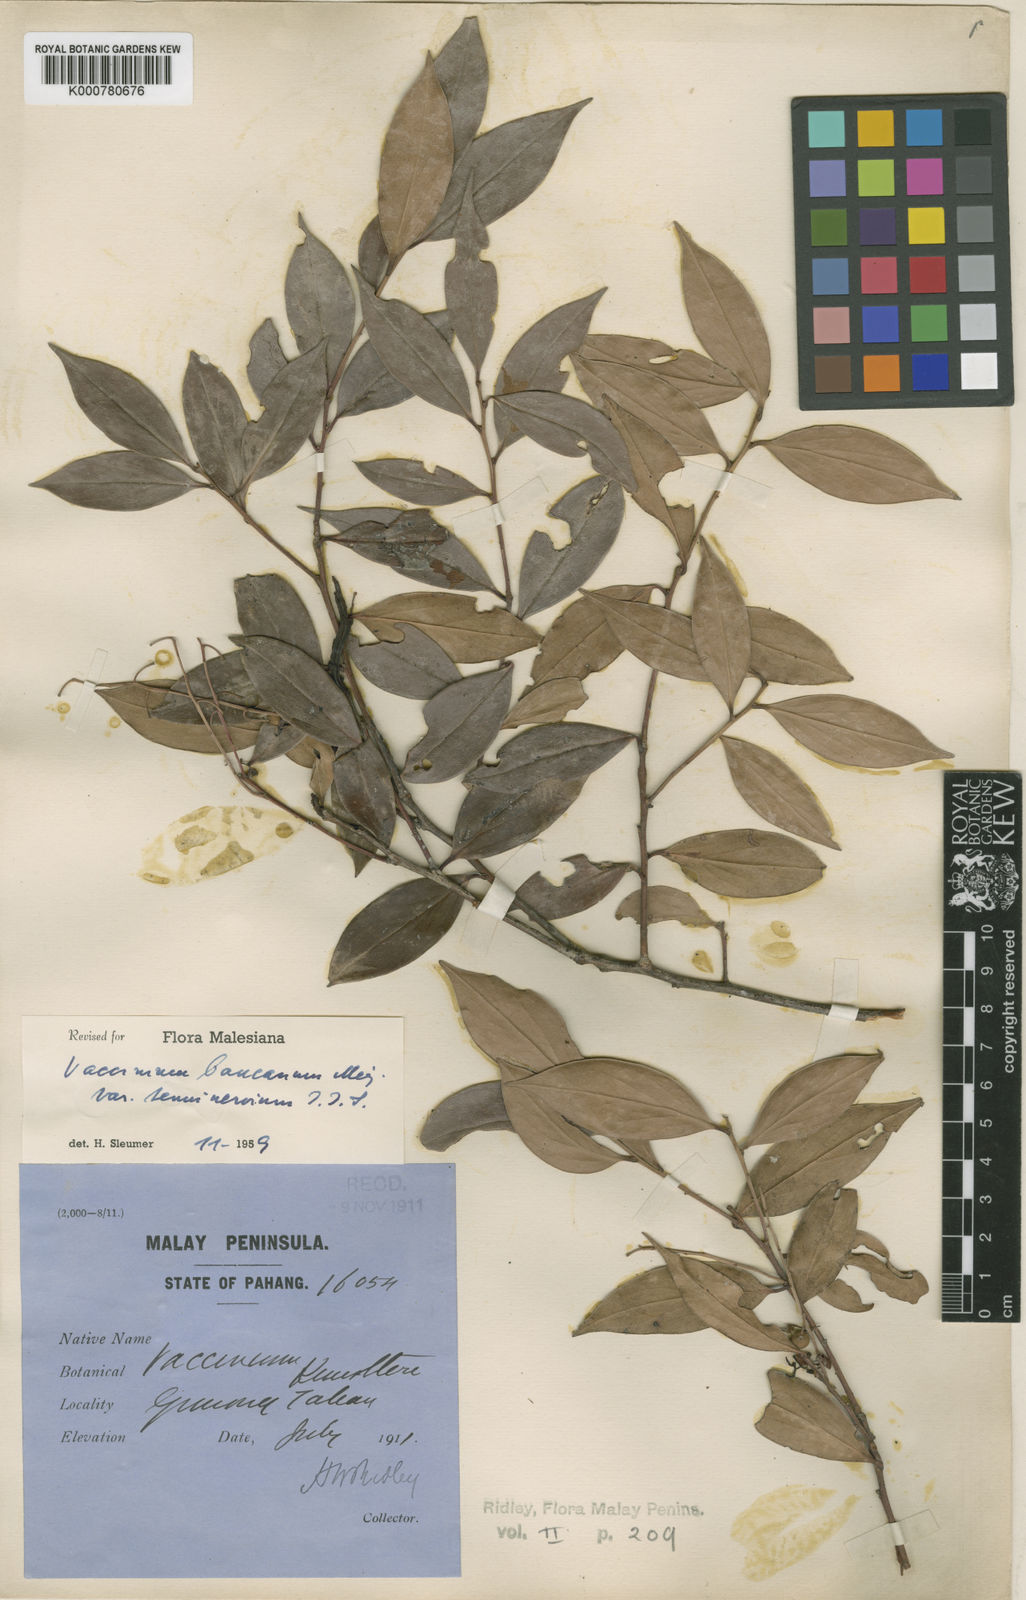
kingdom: Plantae
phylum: Tracheophyta
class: Magnoliopsida
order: Ericales
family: Ericaceae
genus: Vaccinium
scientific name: Vaccinium bancanum
